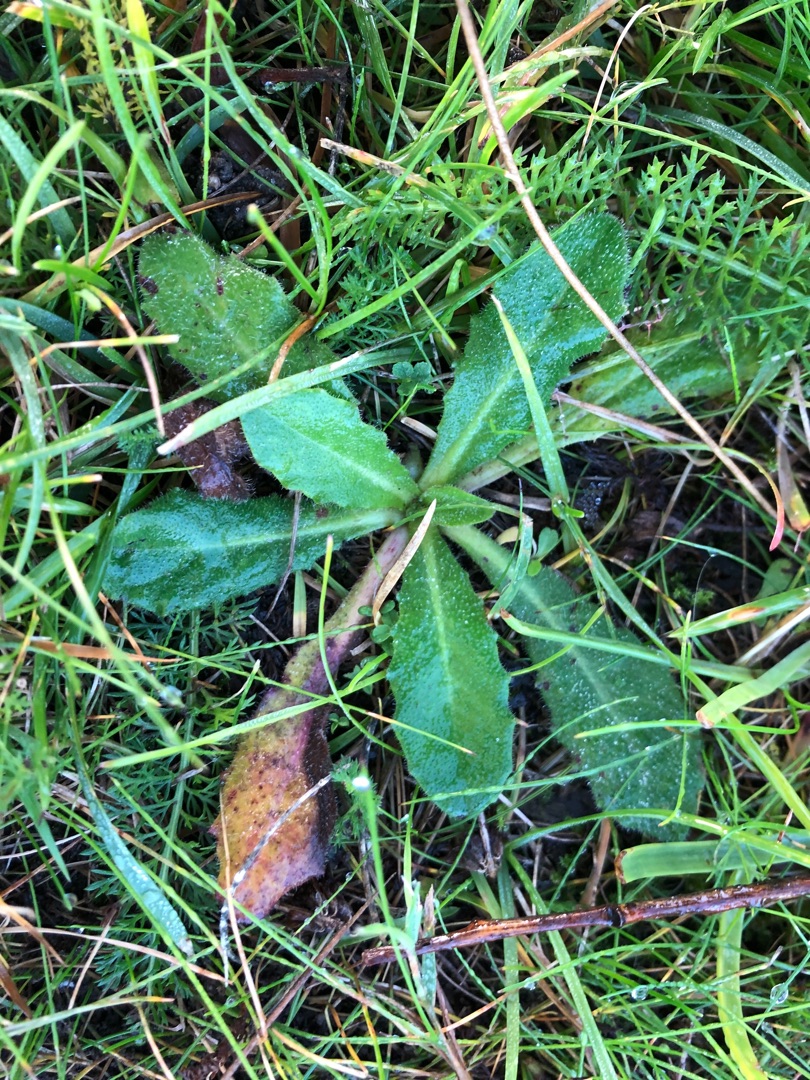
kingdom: Plantae
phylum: Tracheophyta
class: Magnoliopsida
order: Asterales
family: Asteraceae
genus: Hypochaeris
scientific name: Hypochaeris radicata
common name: Almindelig kongepen
